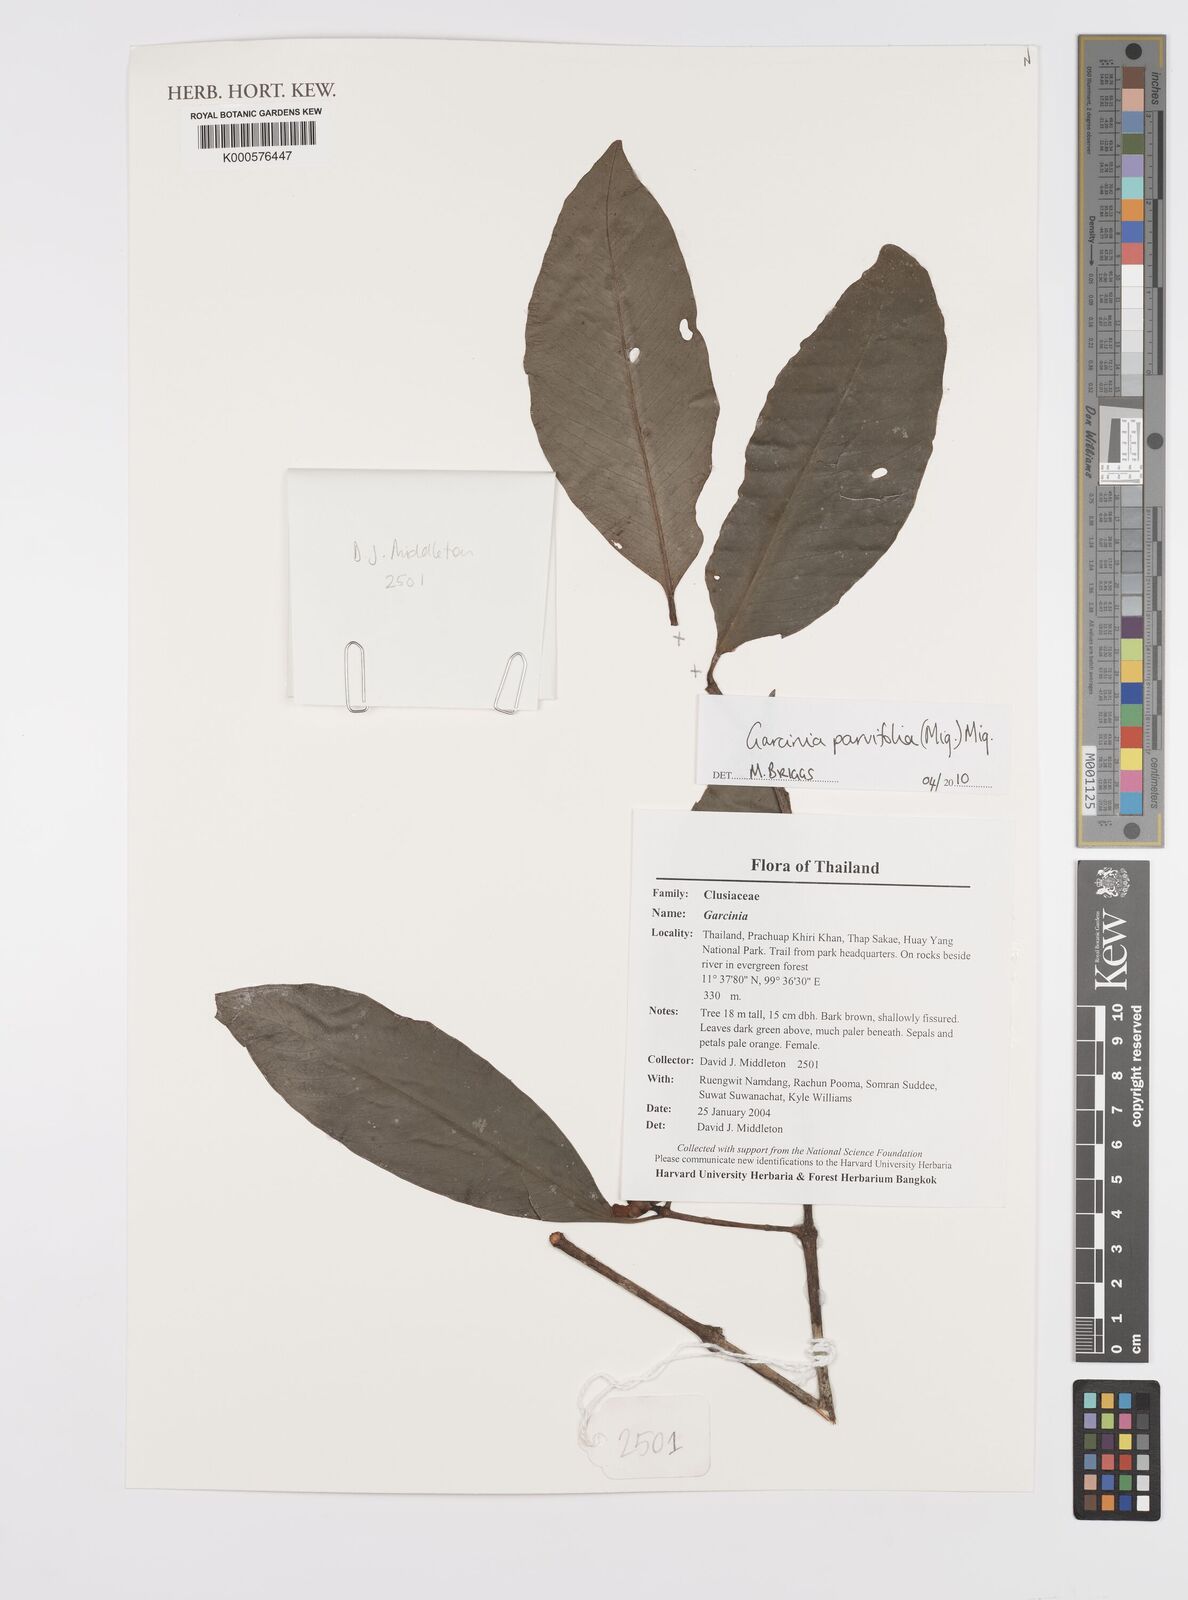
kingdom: Plantae
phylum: Tracheophyta
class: Magnoliopsida
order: Malpighiales
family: Clusiaceae
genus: Garcinia
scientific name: Garcinia parvifolia
